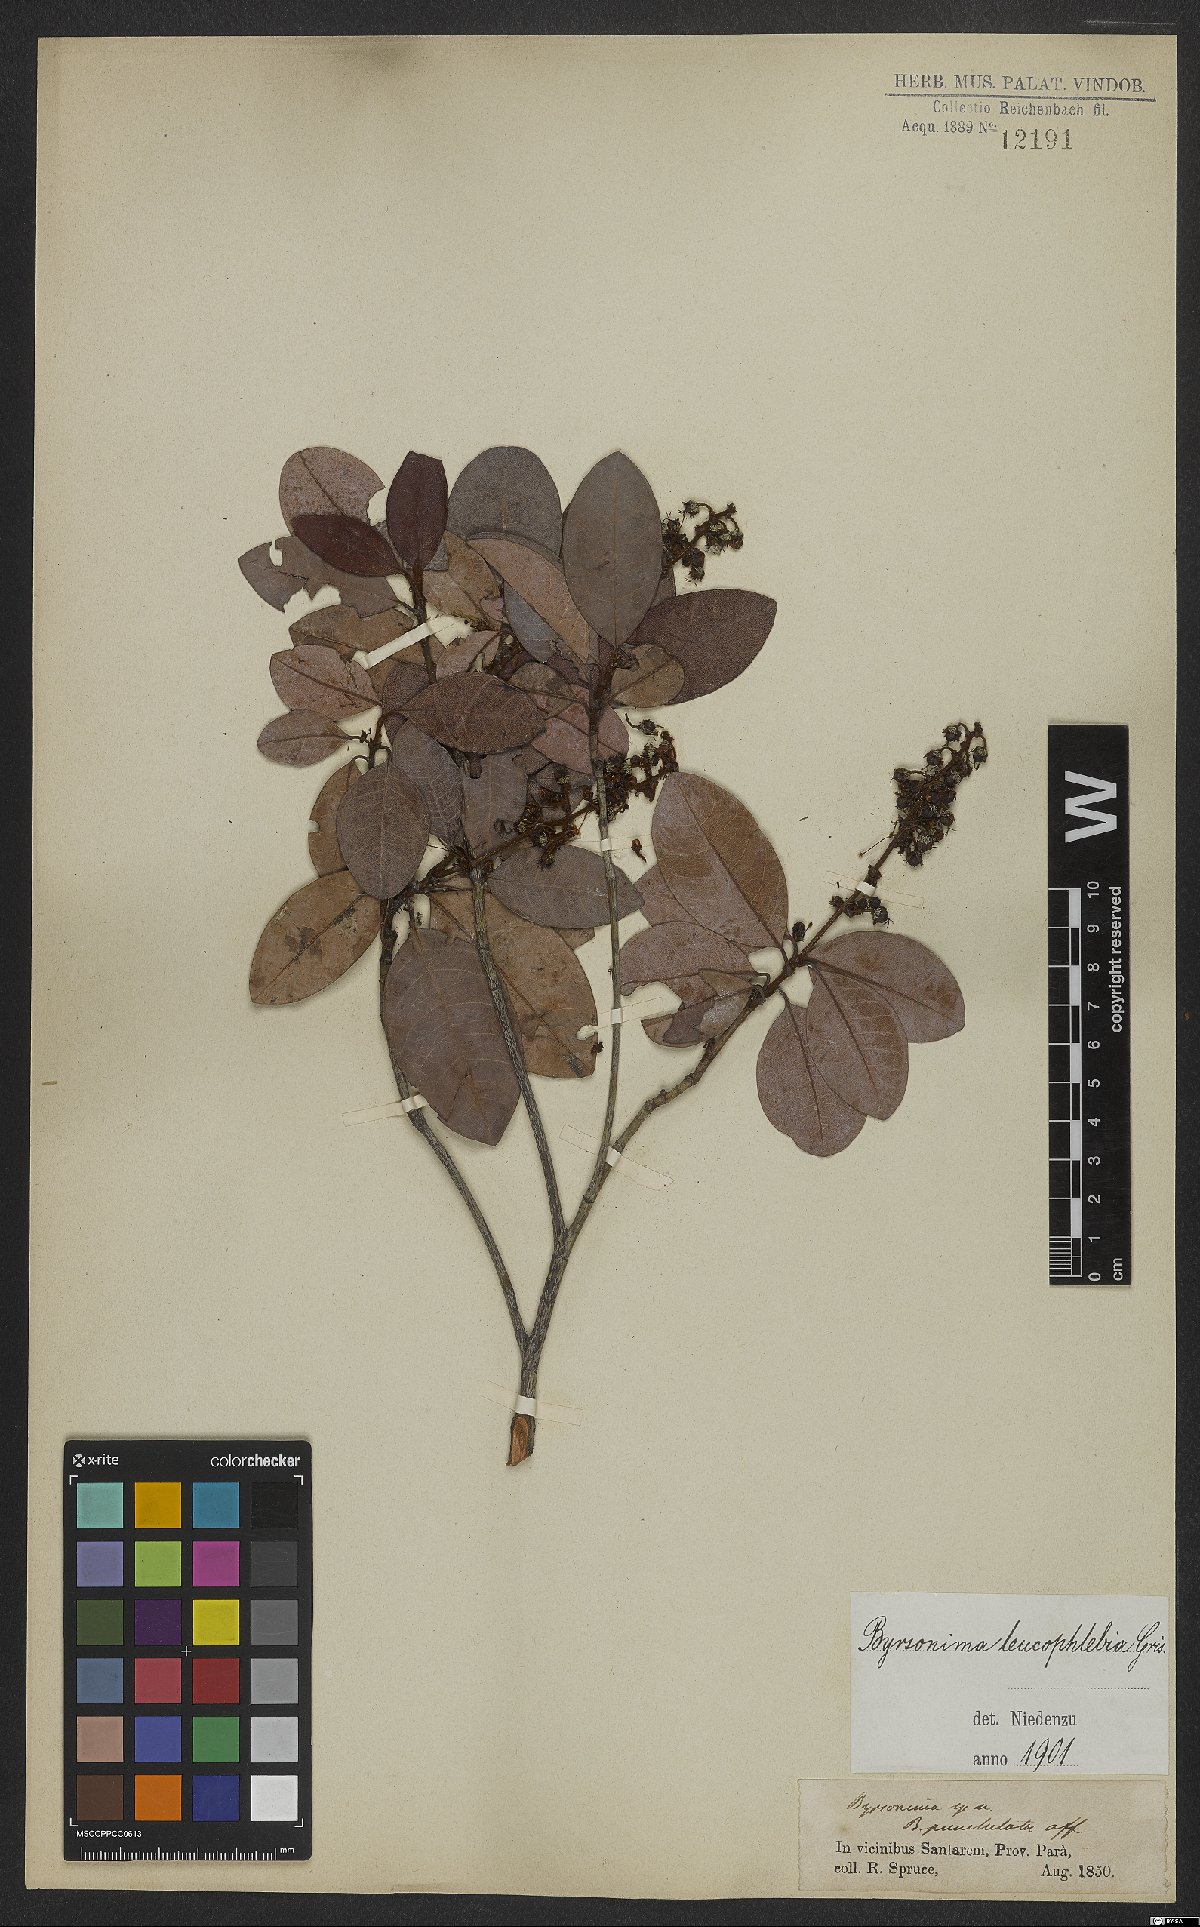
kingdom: Plantae
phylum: Tracheophyta
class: Magnoliopsida
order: Malpighiales
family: Malpighiaceae
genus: Byrsonima
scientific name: Byrsonima leucophlebia
